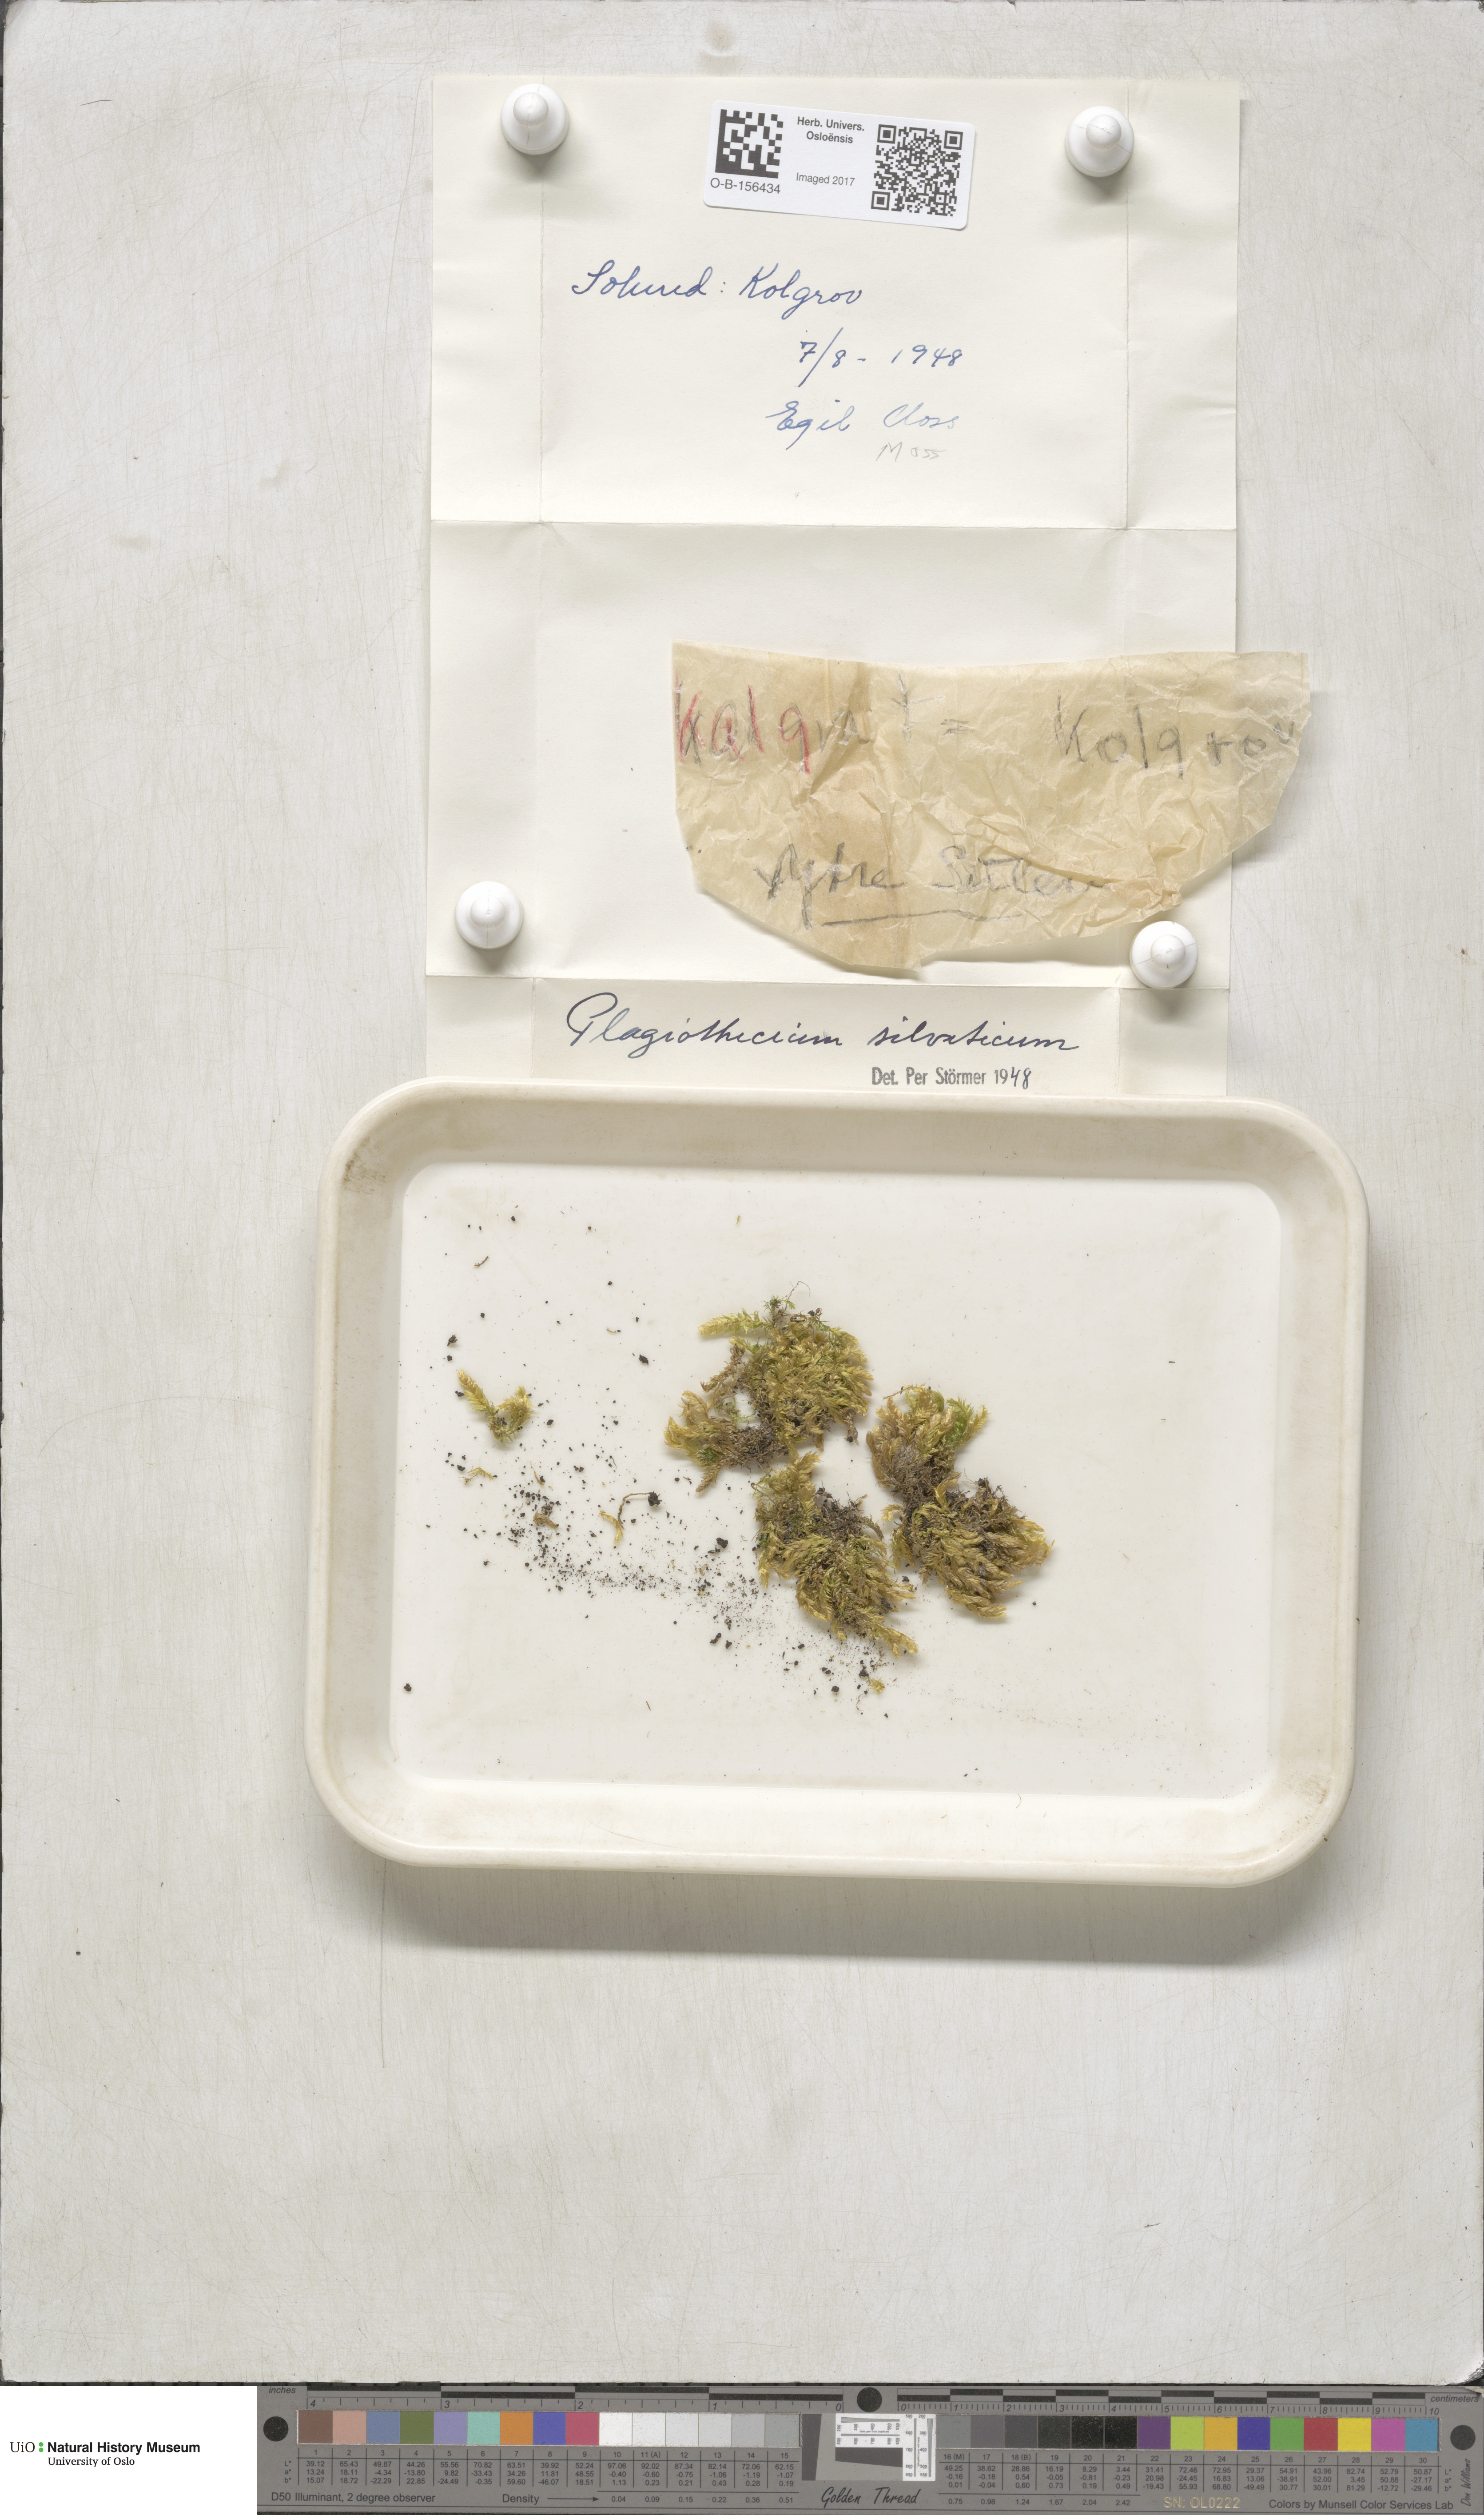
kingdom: Plantae
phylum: Bryophyta
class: Bryopsida
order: Hypnales
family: Plagiotheciaceae
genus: Plagiothecium
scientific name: Plagiothecium nemorale
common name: Woodsy silk-moss
